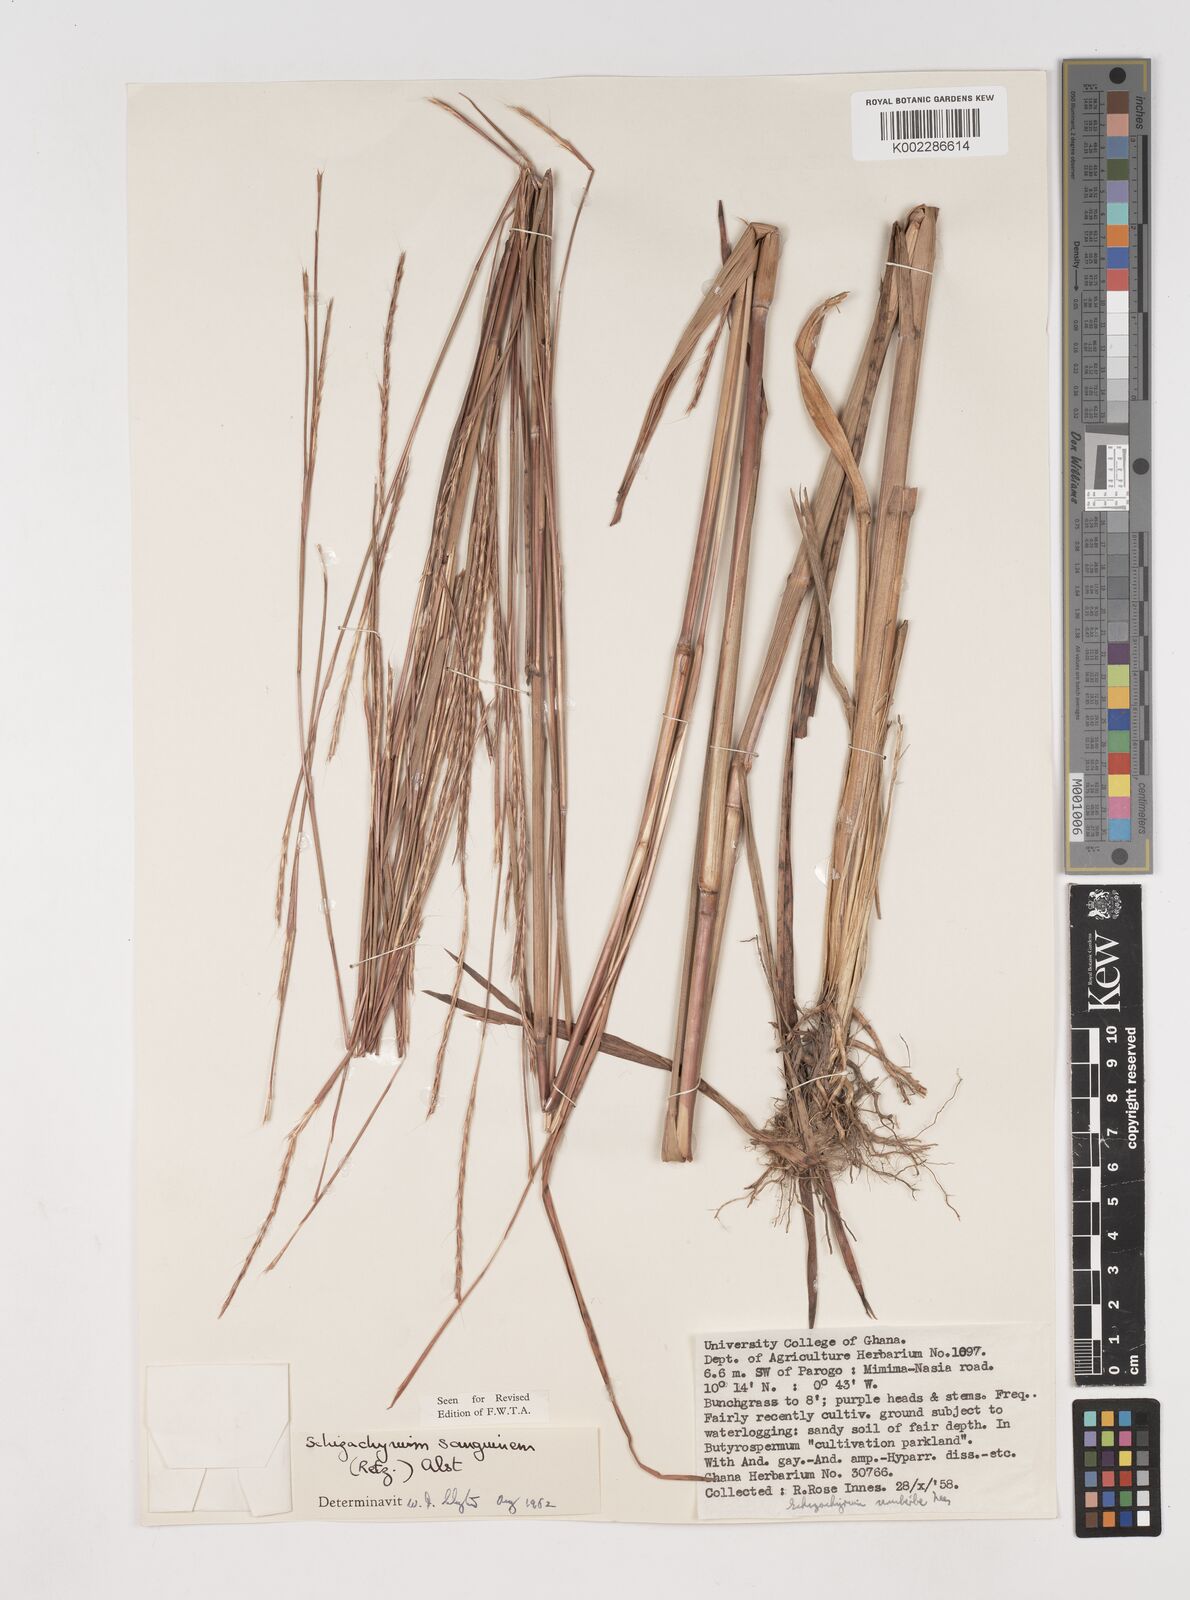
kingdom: Plantae
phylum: Tracheophyta
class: Liliopsida
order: Poales
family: Poaceae
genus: Schizachyrium
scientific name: Schizachyrium sanguineum
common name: Crimson bluestem
